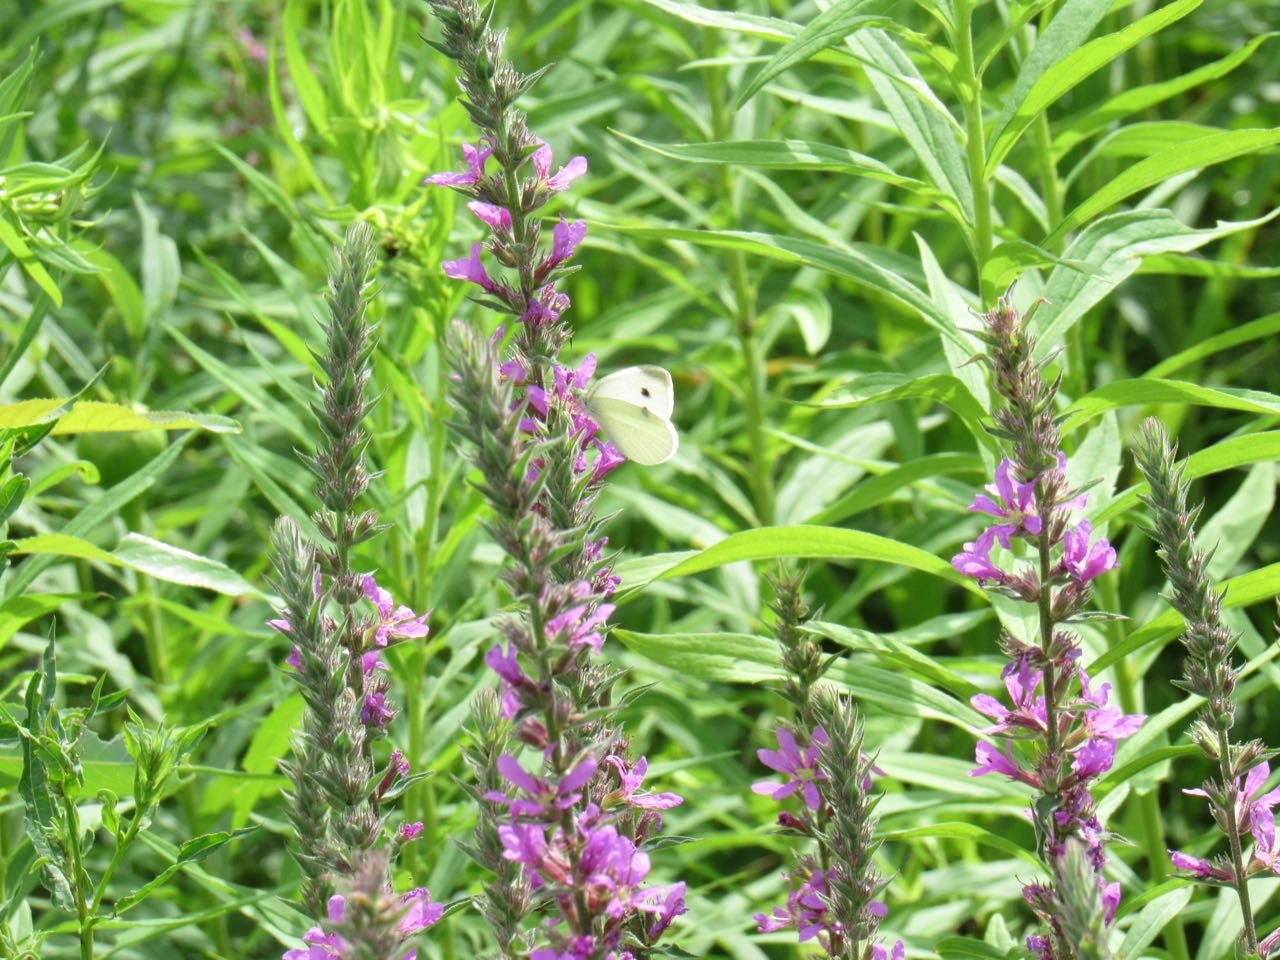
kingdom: Animalia
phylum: Arthropoda
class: Insecta
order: Lepidoptera
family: Pieridae
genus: Pieris
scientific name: Pieris rapae
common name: Cabbage White
